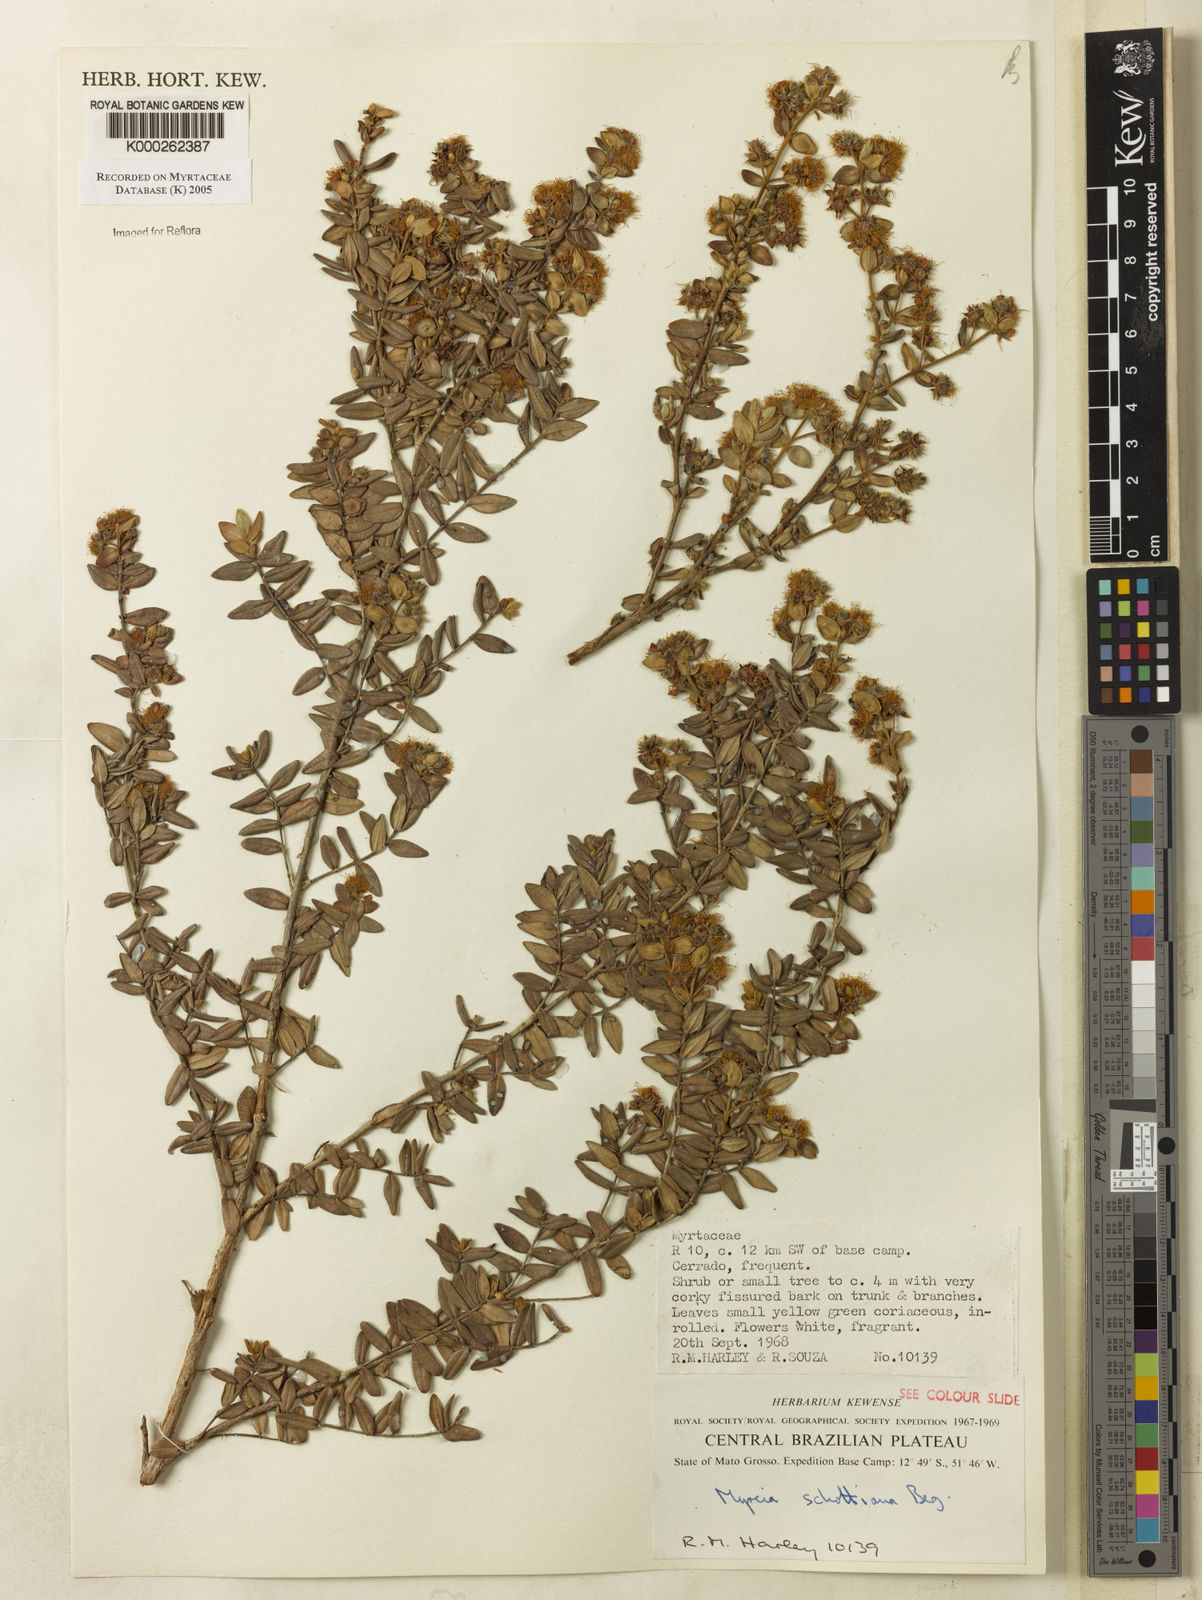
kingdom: Plantae
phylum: Tracheophyta
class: Magnoliopsida
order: Myrtales
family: Myrtaceae
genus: Myrcia
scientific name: Myrcia schottiana
